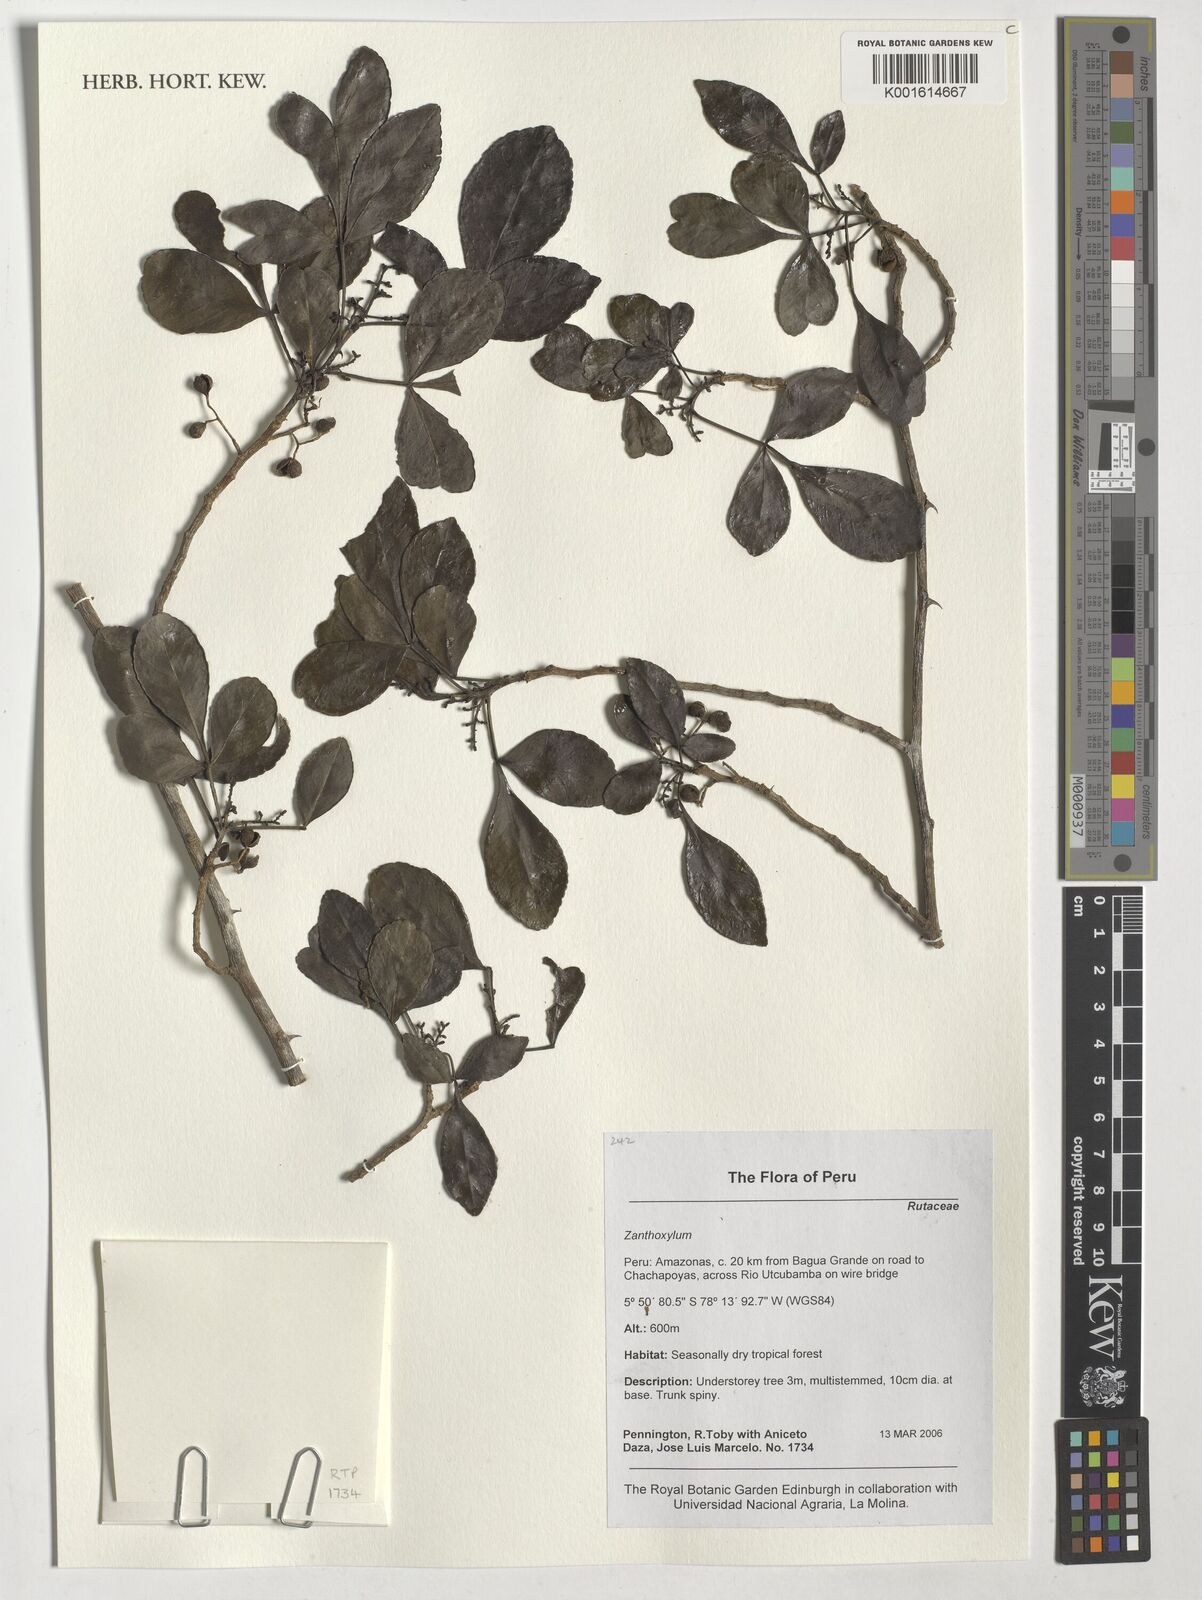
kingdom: Plantae
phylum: Tracheophyta
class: Magnoliopsida
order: Sapindales
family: Rutaceae
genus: Zanthoxylum
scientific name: Zanthoxylum
